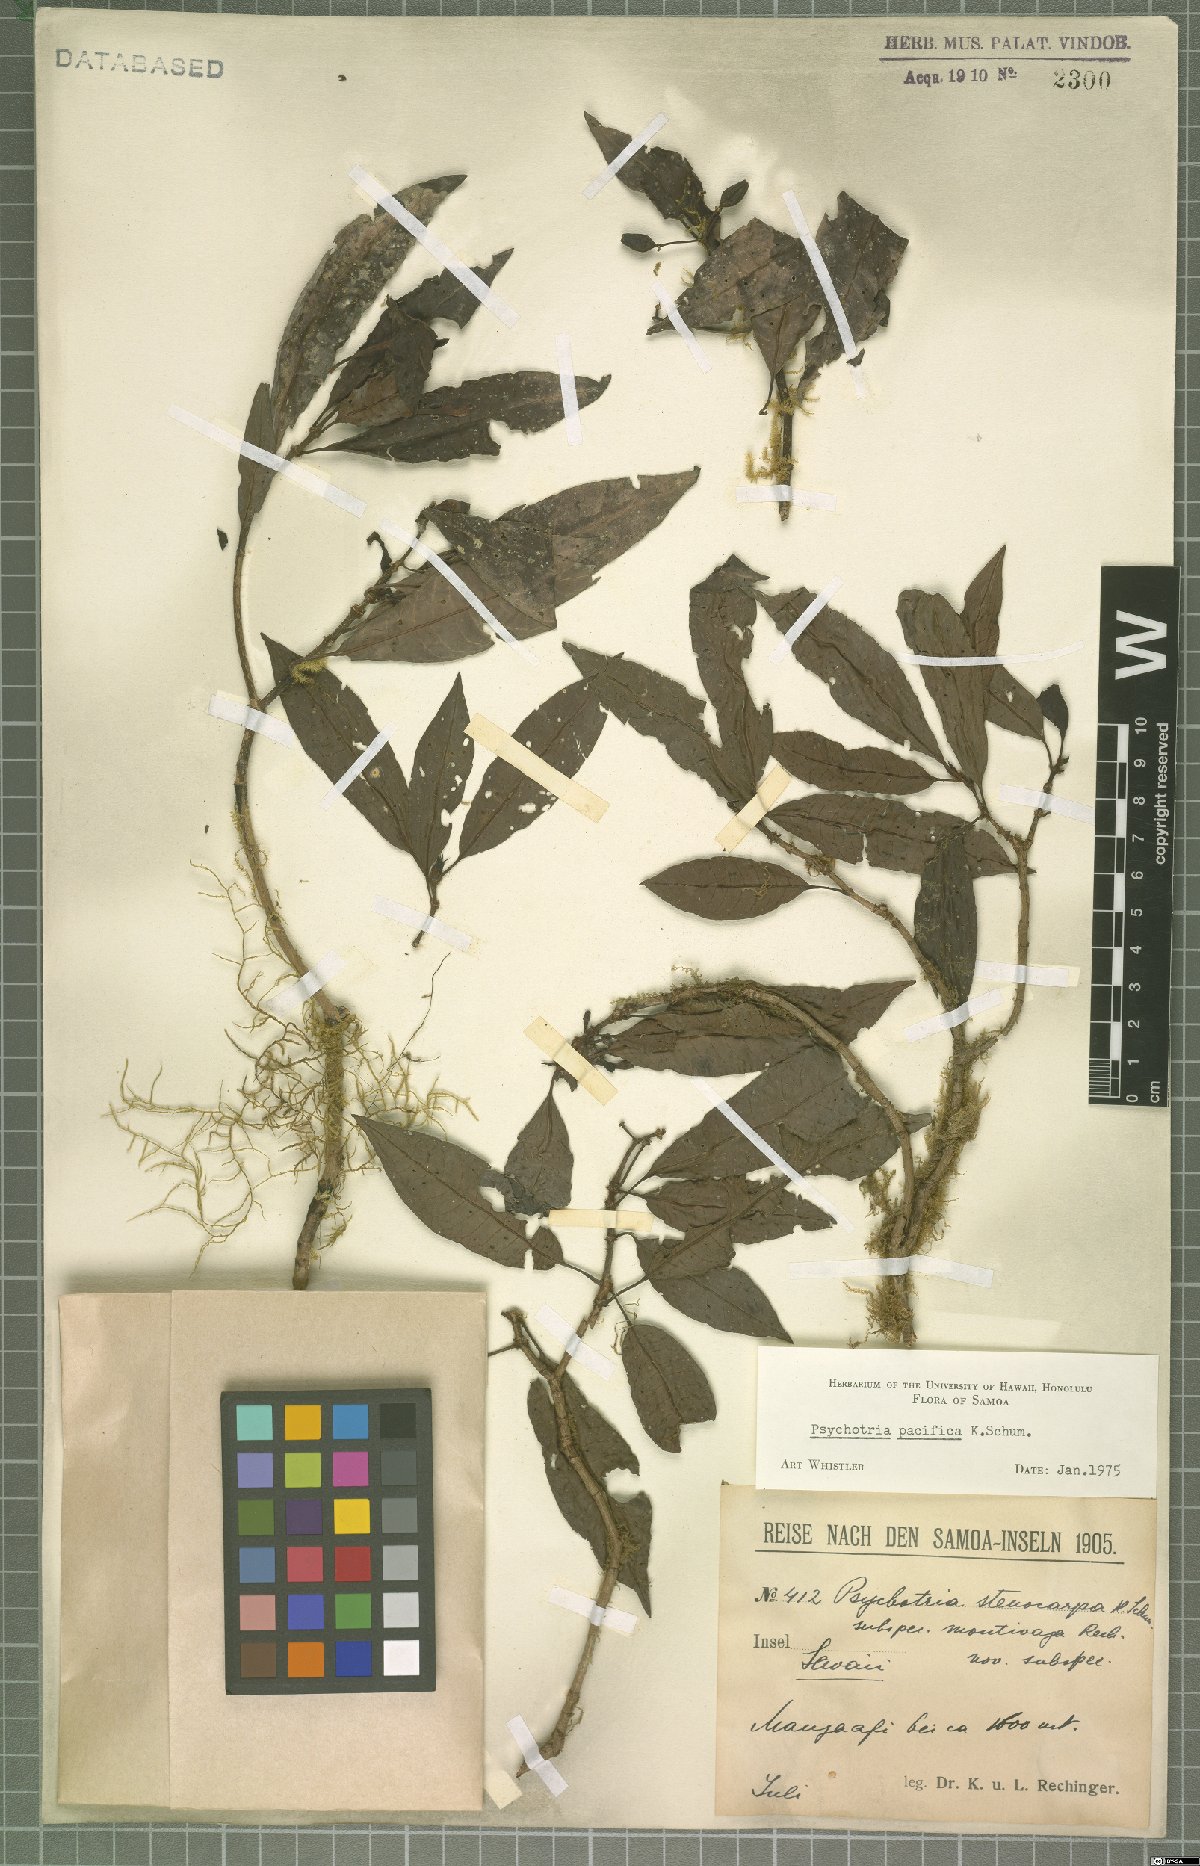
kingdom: Plantae
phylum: Tracheophyta
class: Magnoliopsida
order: Gentianales
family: Rubiaceae
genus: Psychotria
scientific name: Psychotria pacifica
